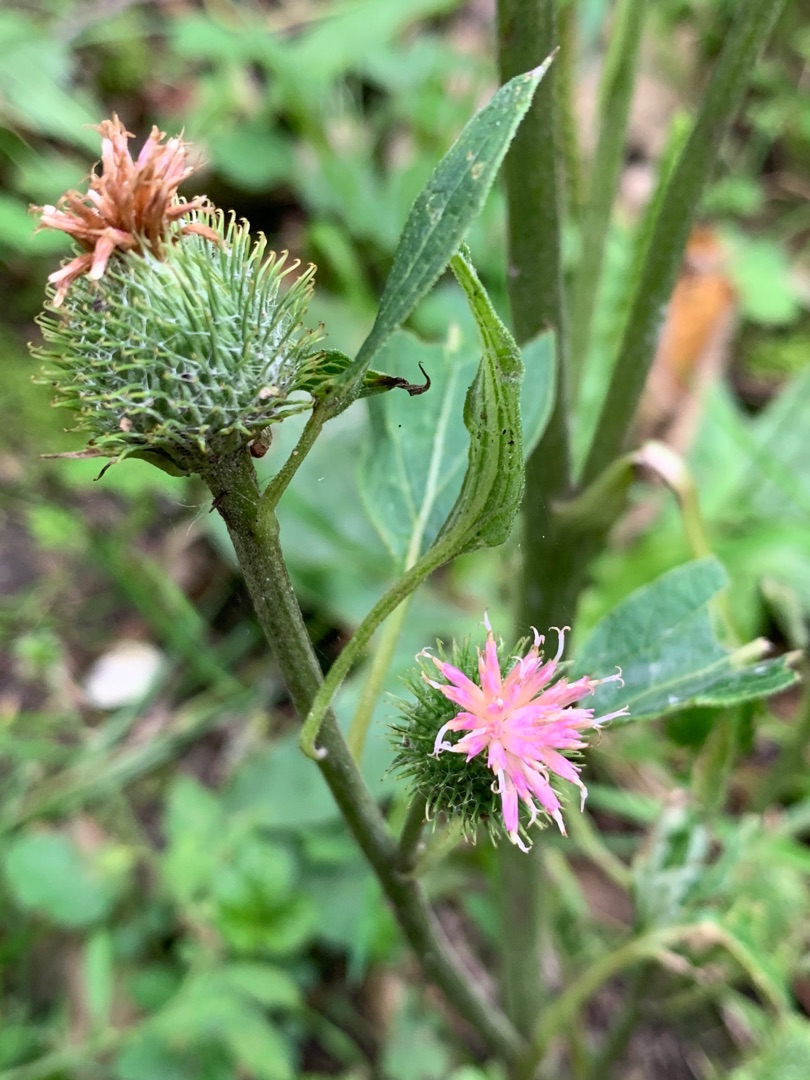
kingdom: Plantae
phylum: Tracheophyta
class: Magnoliopsida
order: Asterales
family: Asteraceae
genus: Arctium
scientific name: Arctium minus
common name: Liden burre
